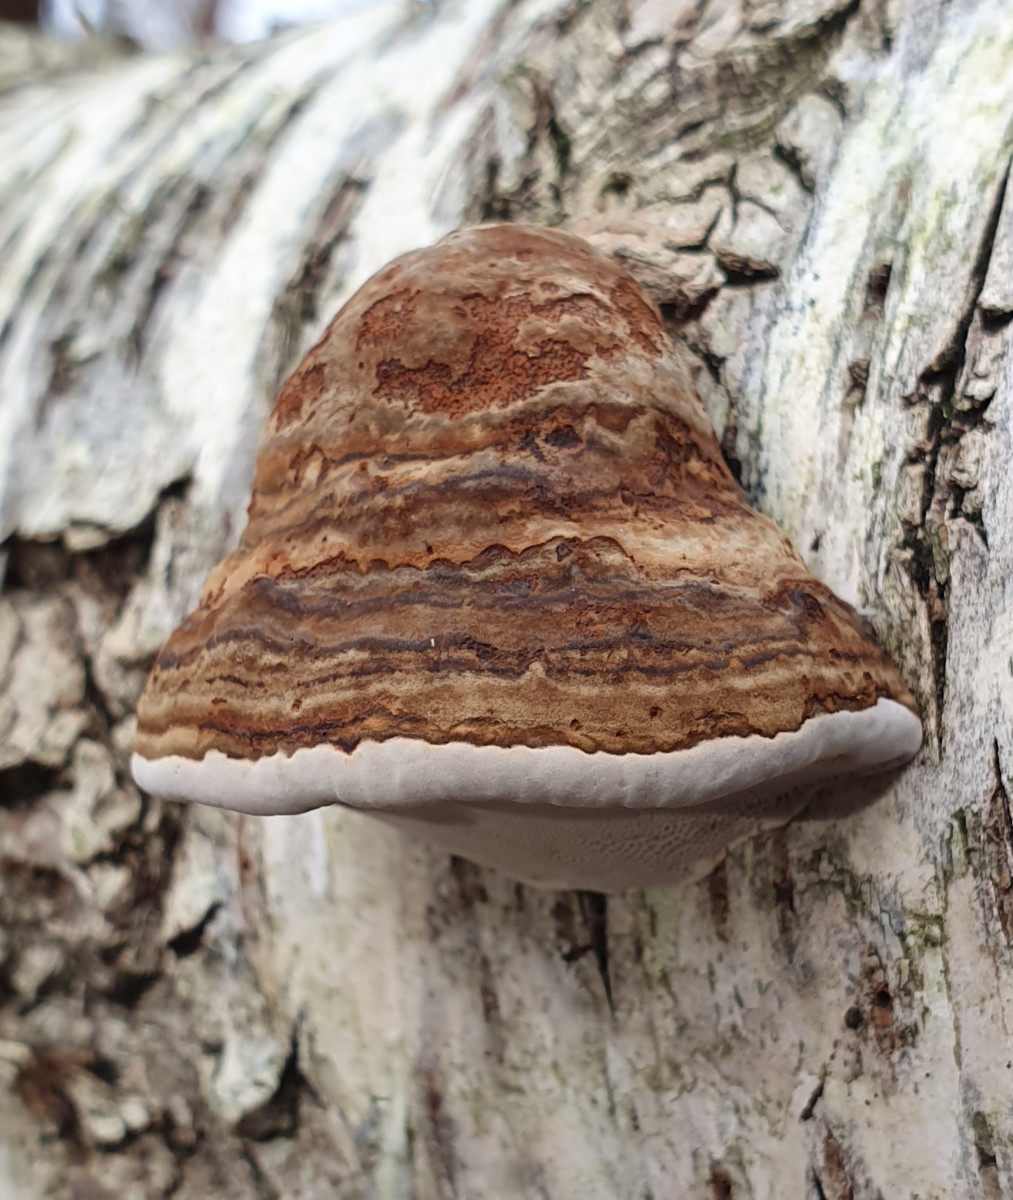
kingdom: Fungi
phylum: Basidiomycota
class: Agaricomycetes
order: Polyporales
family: Polyporaceae
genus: Fomes
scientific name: Fomes fomentarius
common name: tøndersvamp
